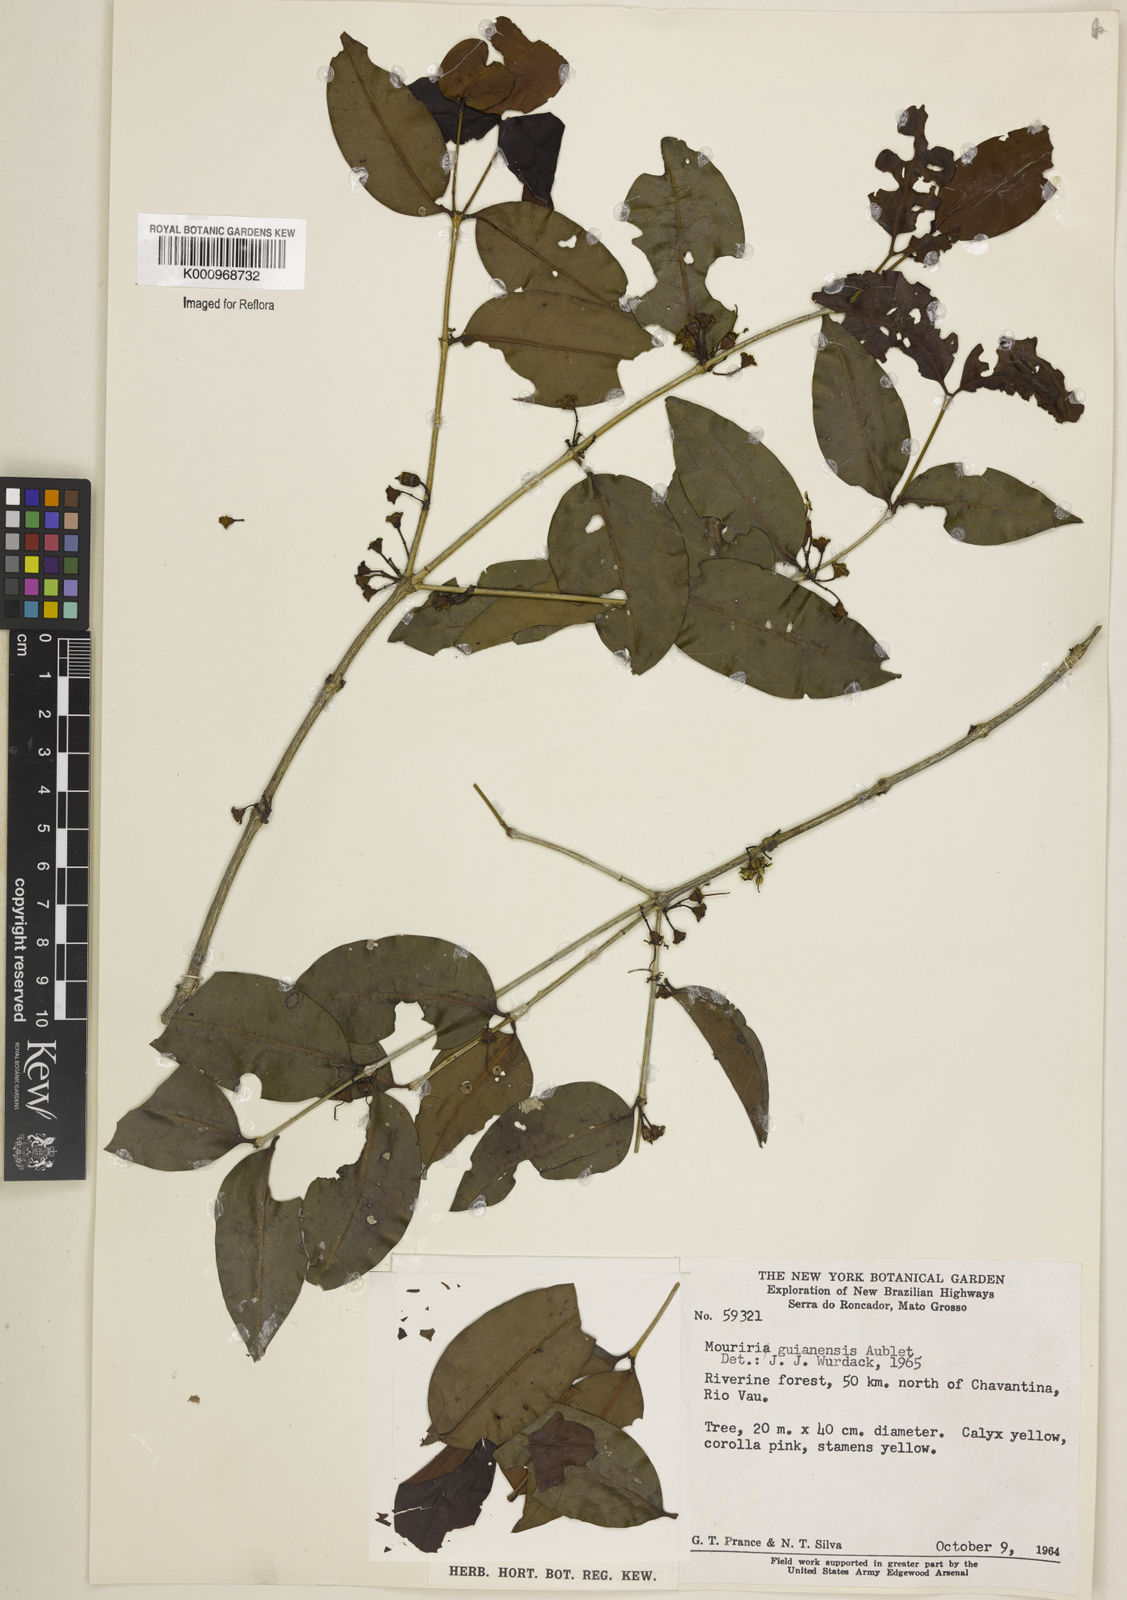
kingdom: Plantae
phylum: Tracheophyta
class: Magnoliopsida
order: Myrtales
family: Melastomataceae
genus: Mouriri
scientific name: Mouriri guianensis
